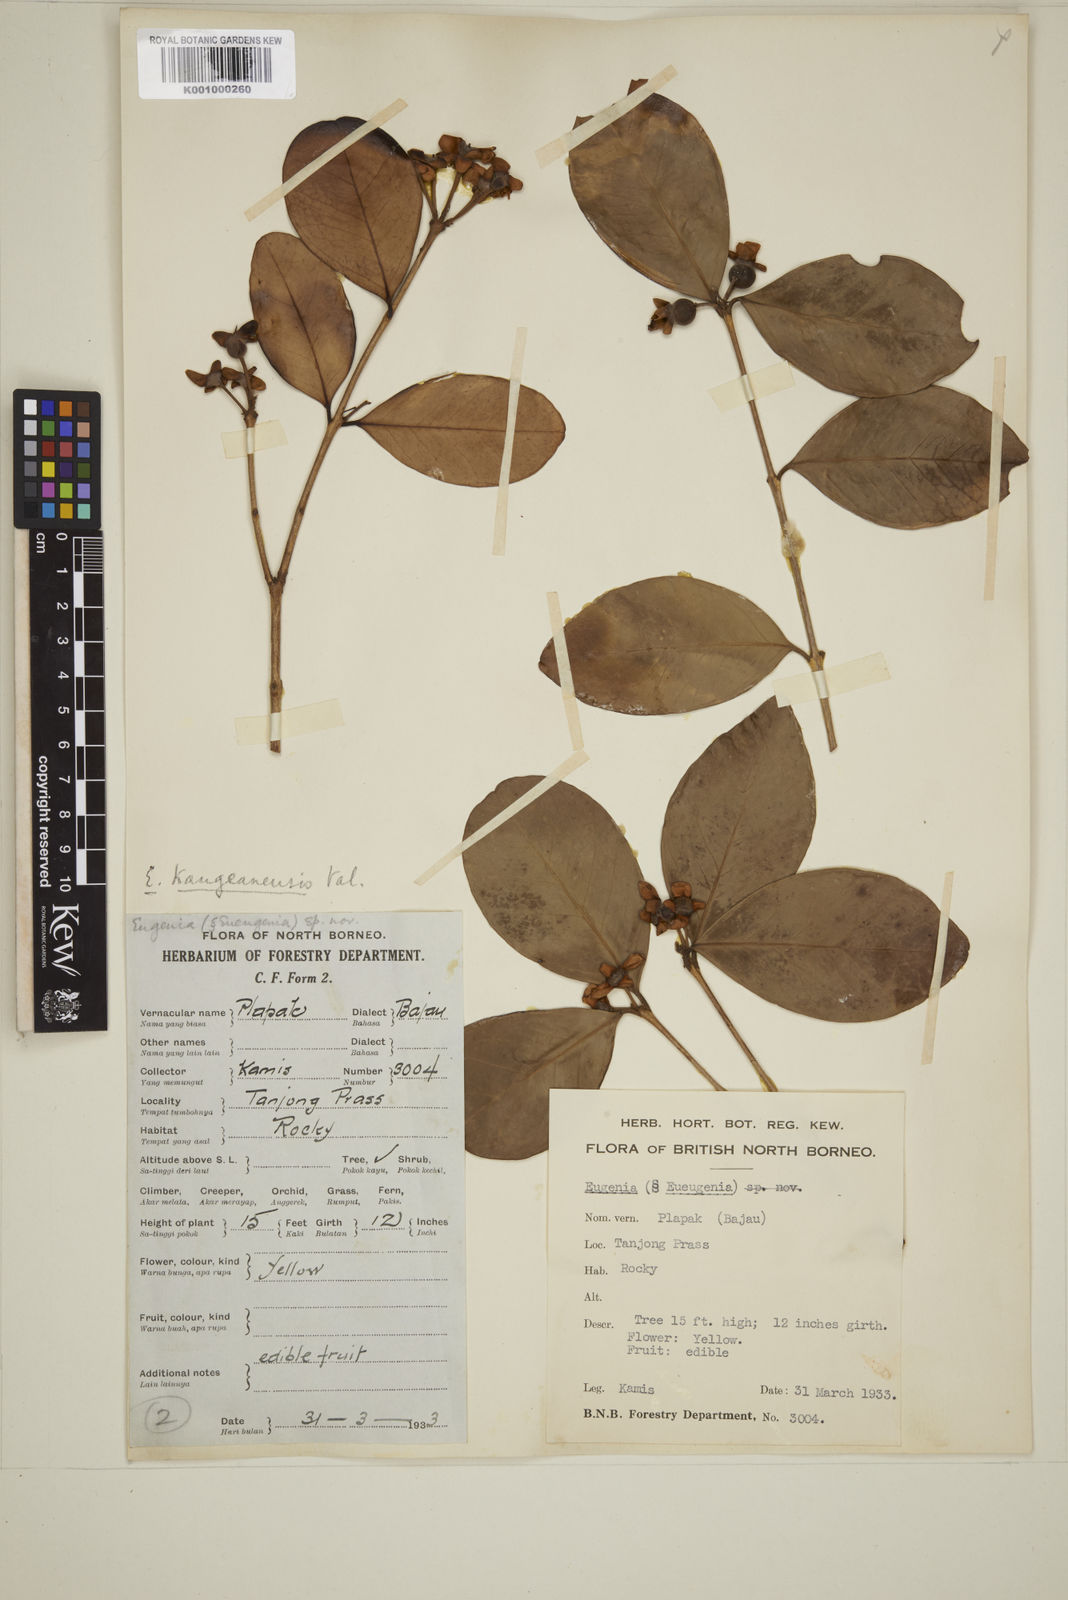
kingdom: Plantae
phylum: Tracheophyta
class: Magnoliopsida
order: Myrtales
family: Myrtaceae
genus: Eugenia
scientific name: Eugenia reinwardtiana
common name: Cedar bay-cherry
